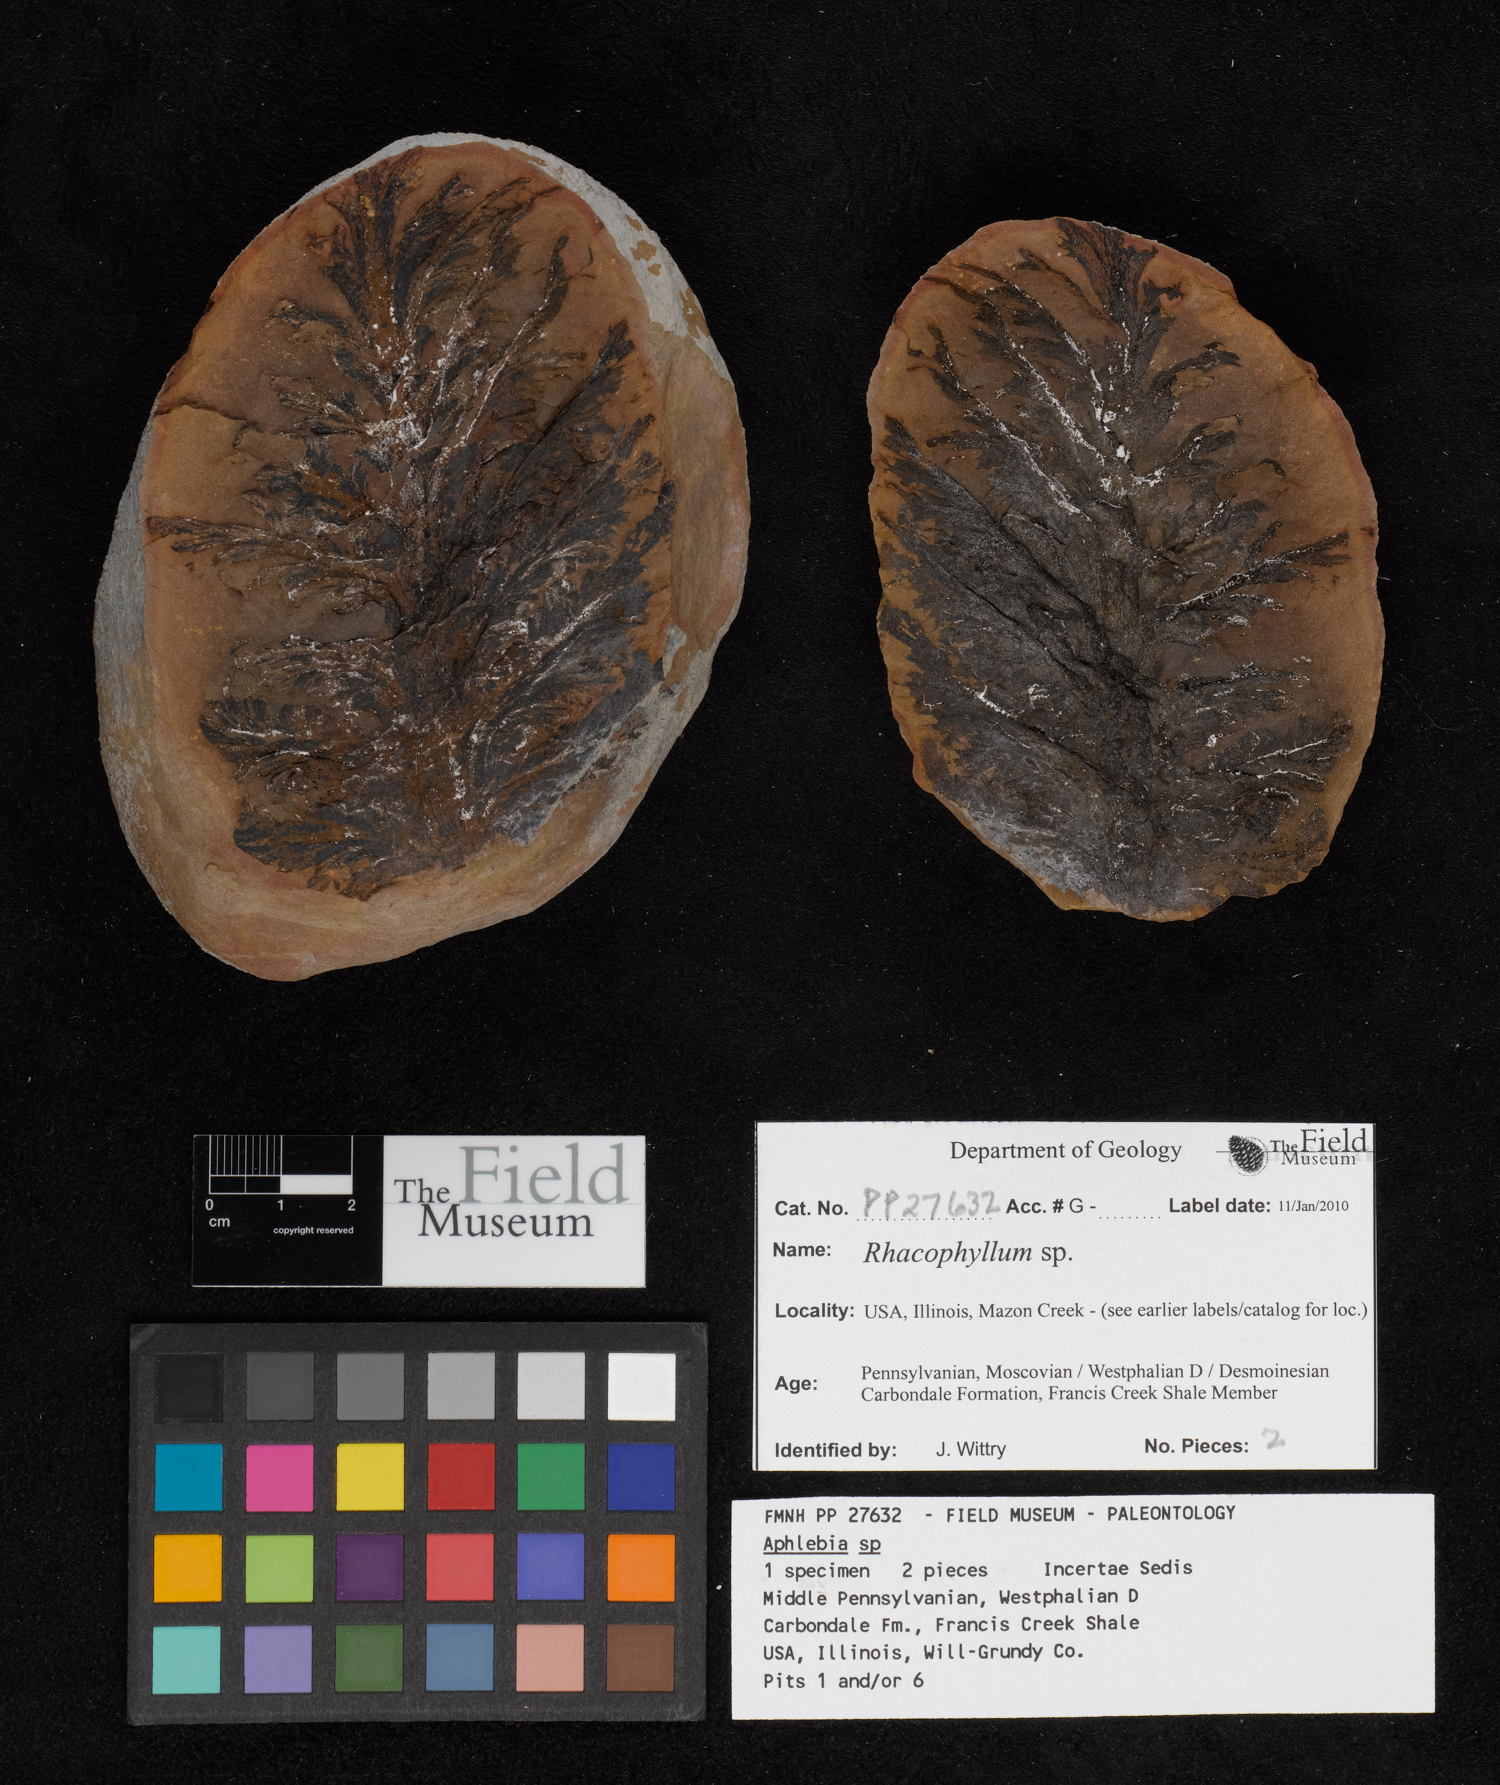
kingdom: Plantae
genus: Rhacophyllum
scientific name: Rhacophyllum
